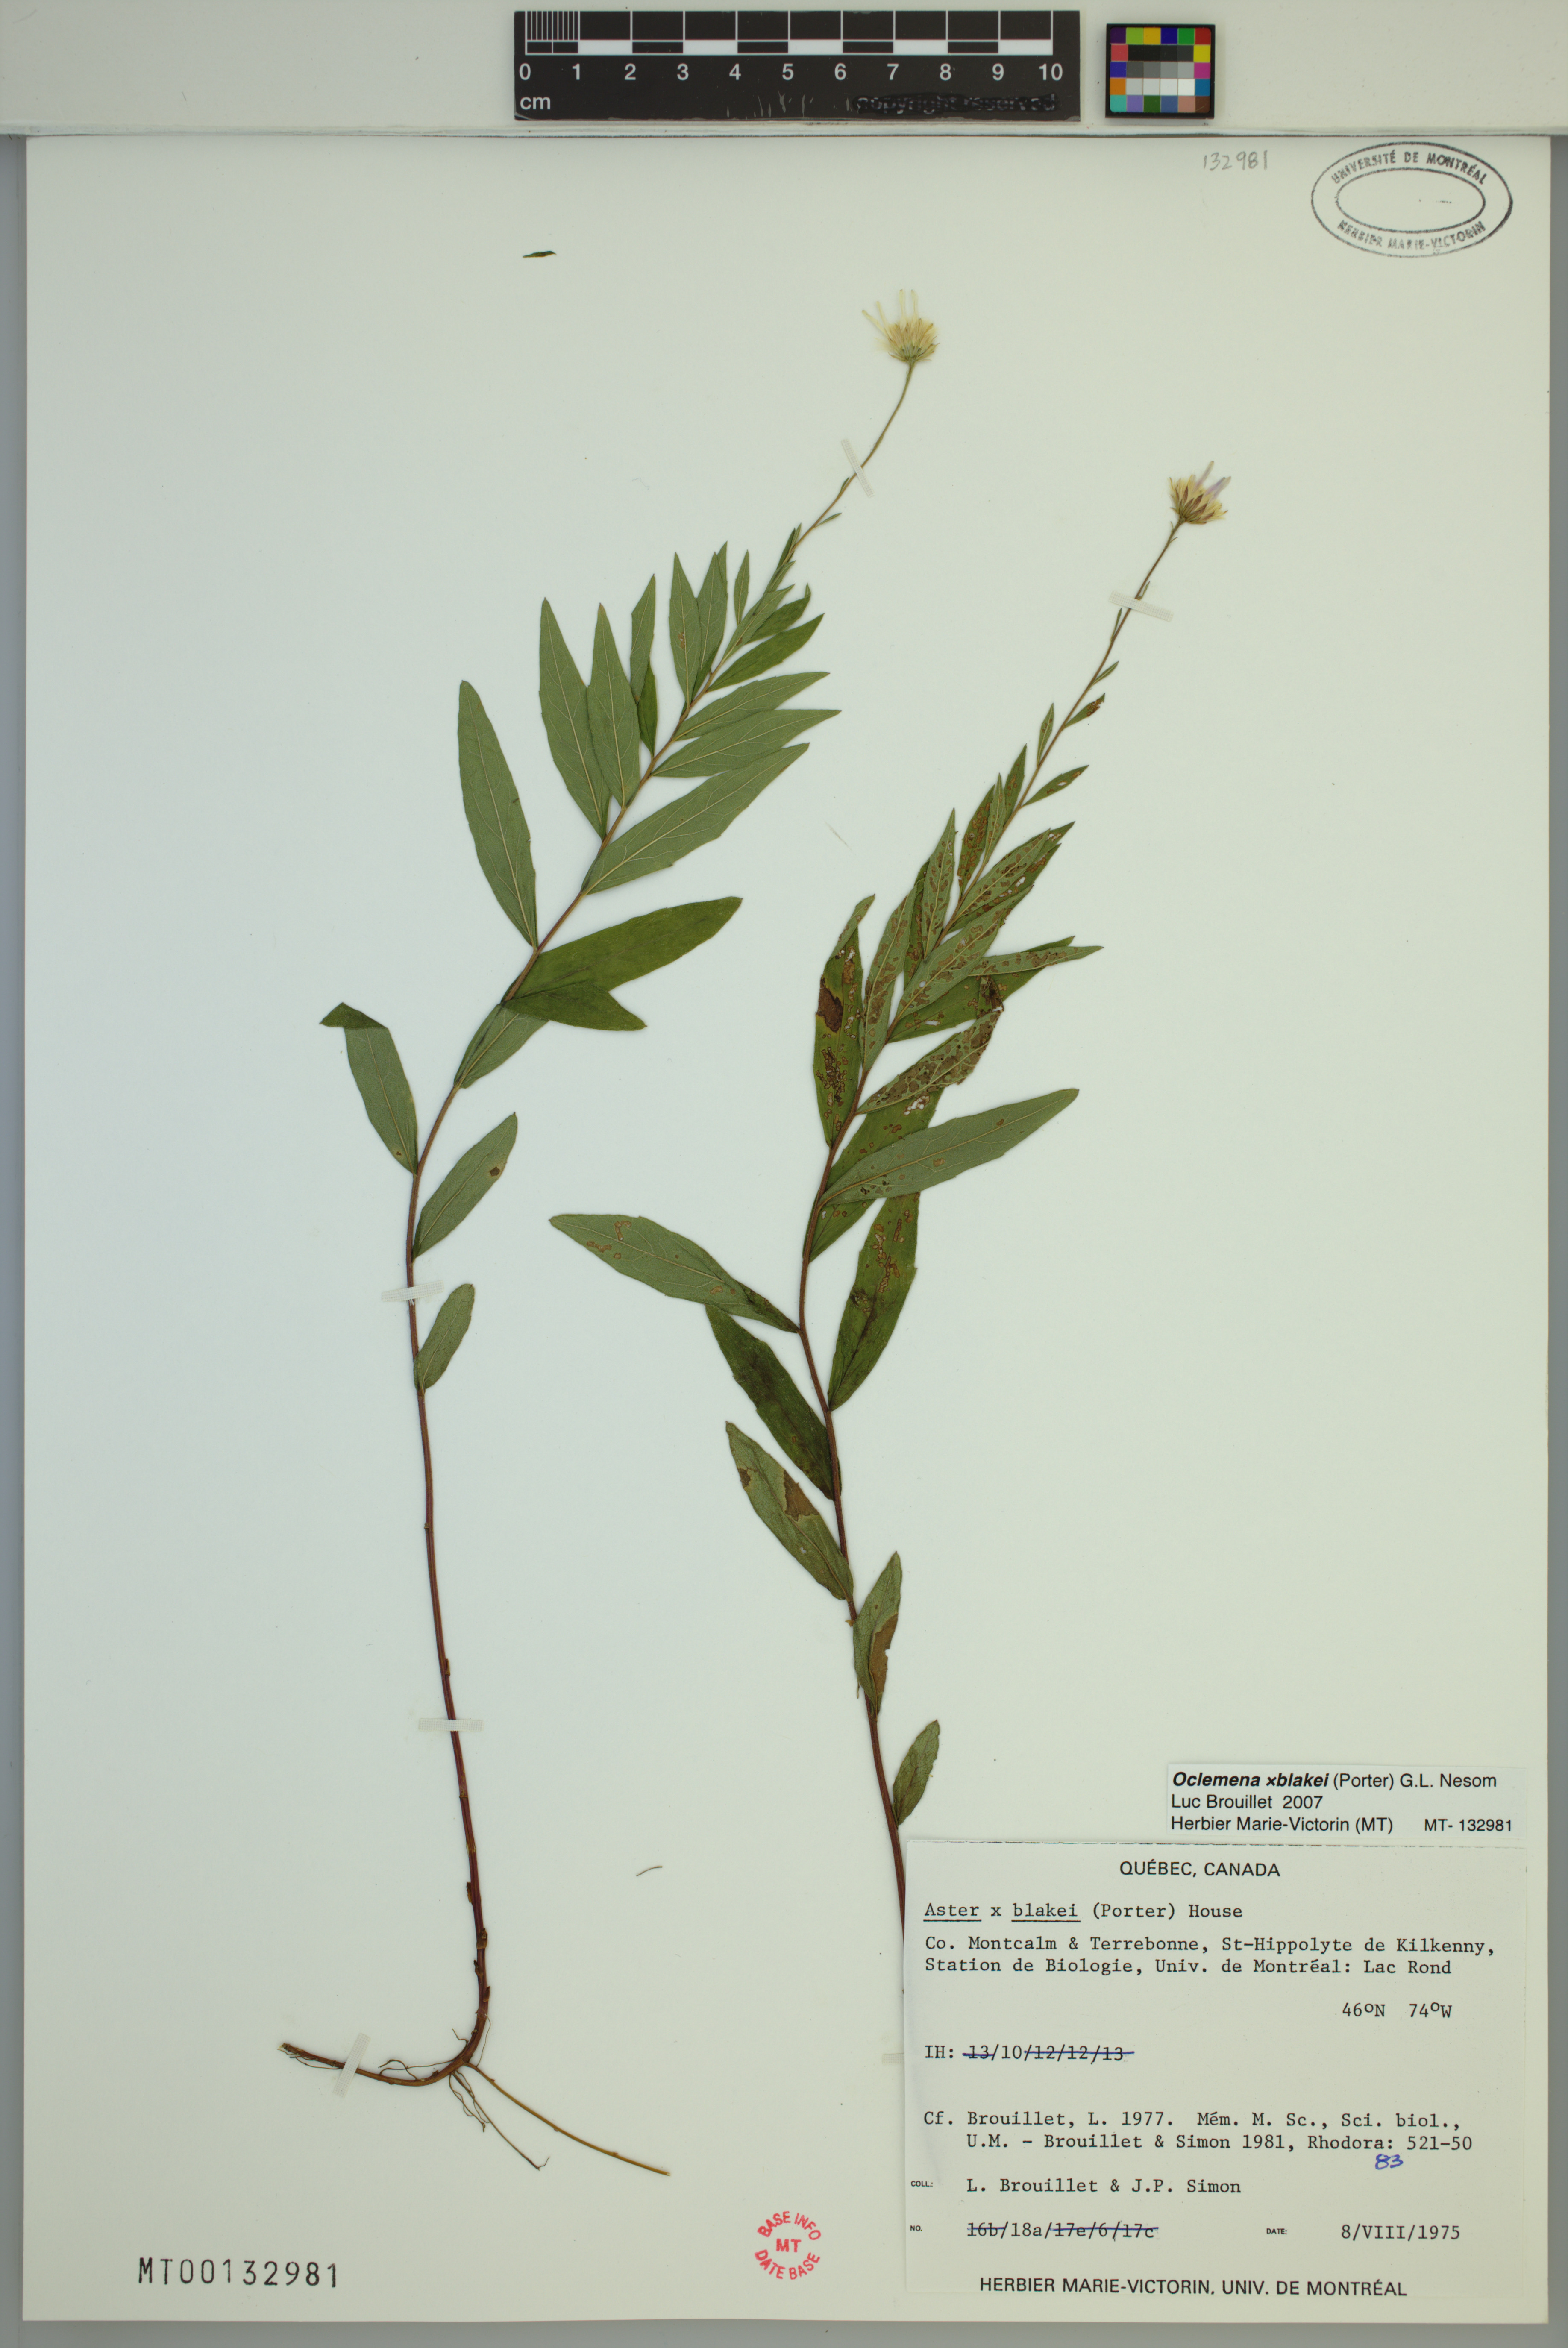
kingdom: Plantae
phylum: Tracheophyta
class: Magnoliopsida
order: Asterales
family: Asteraceae
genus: Oclemena
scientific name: Oclemena blakei
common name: Blake's aster
